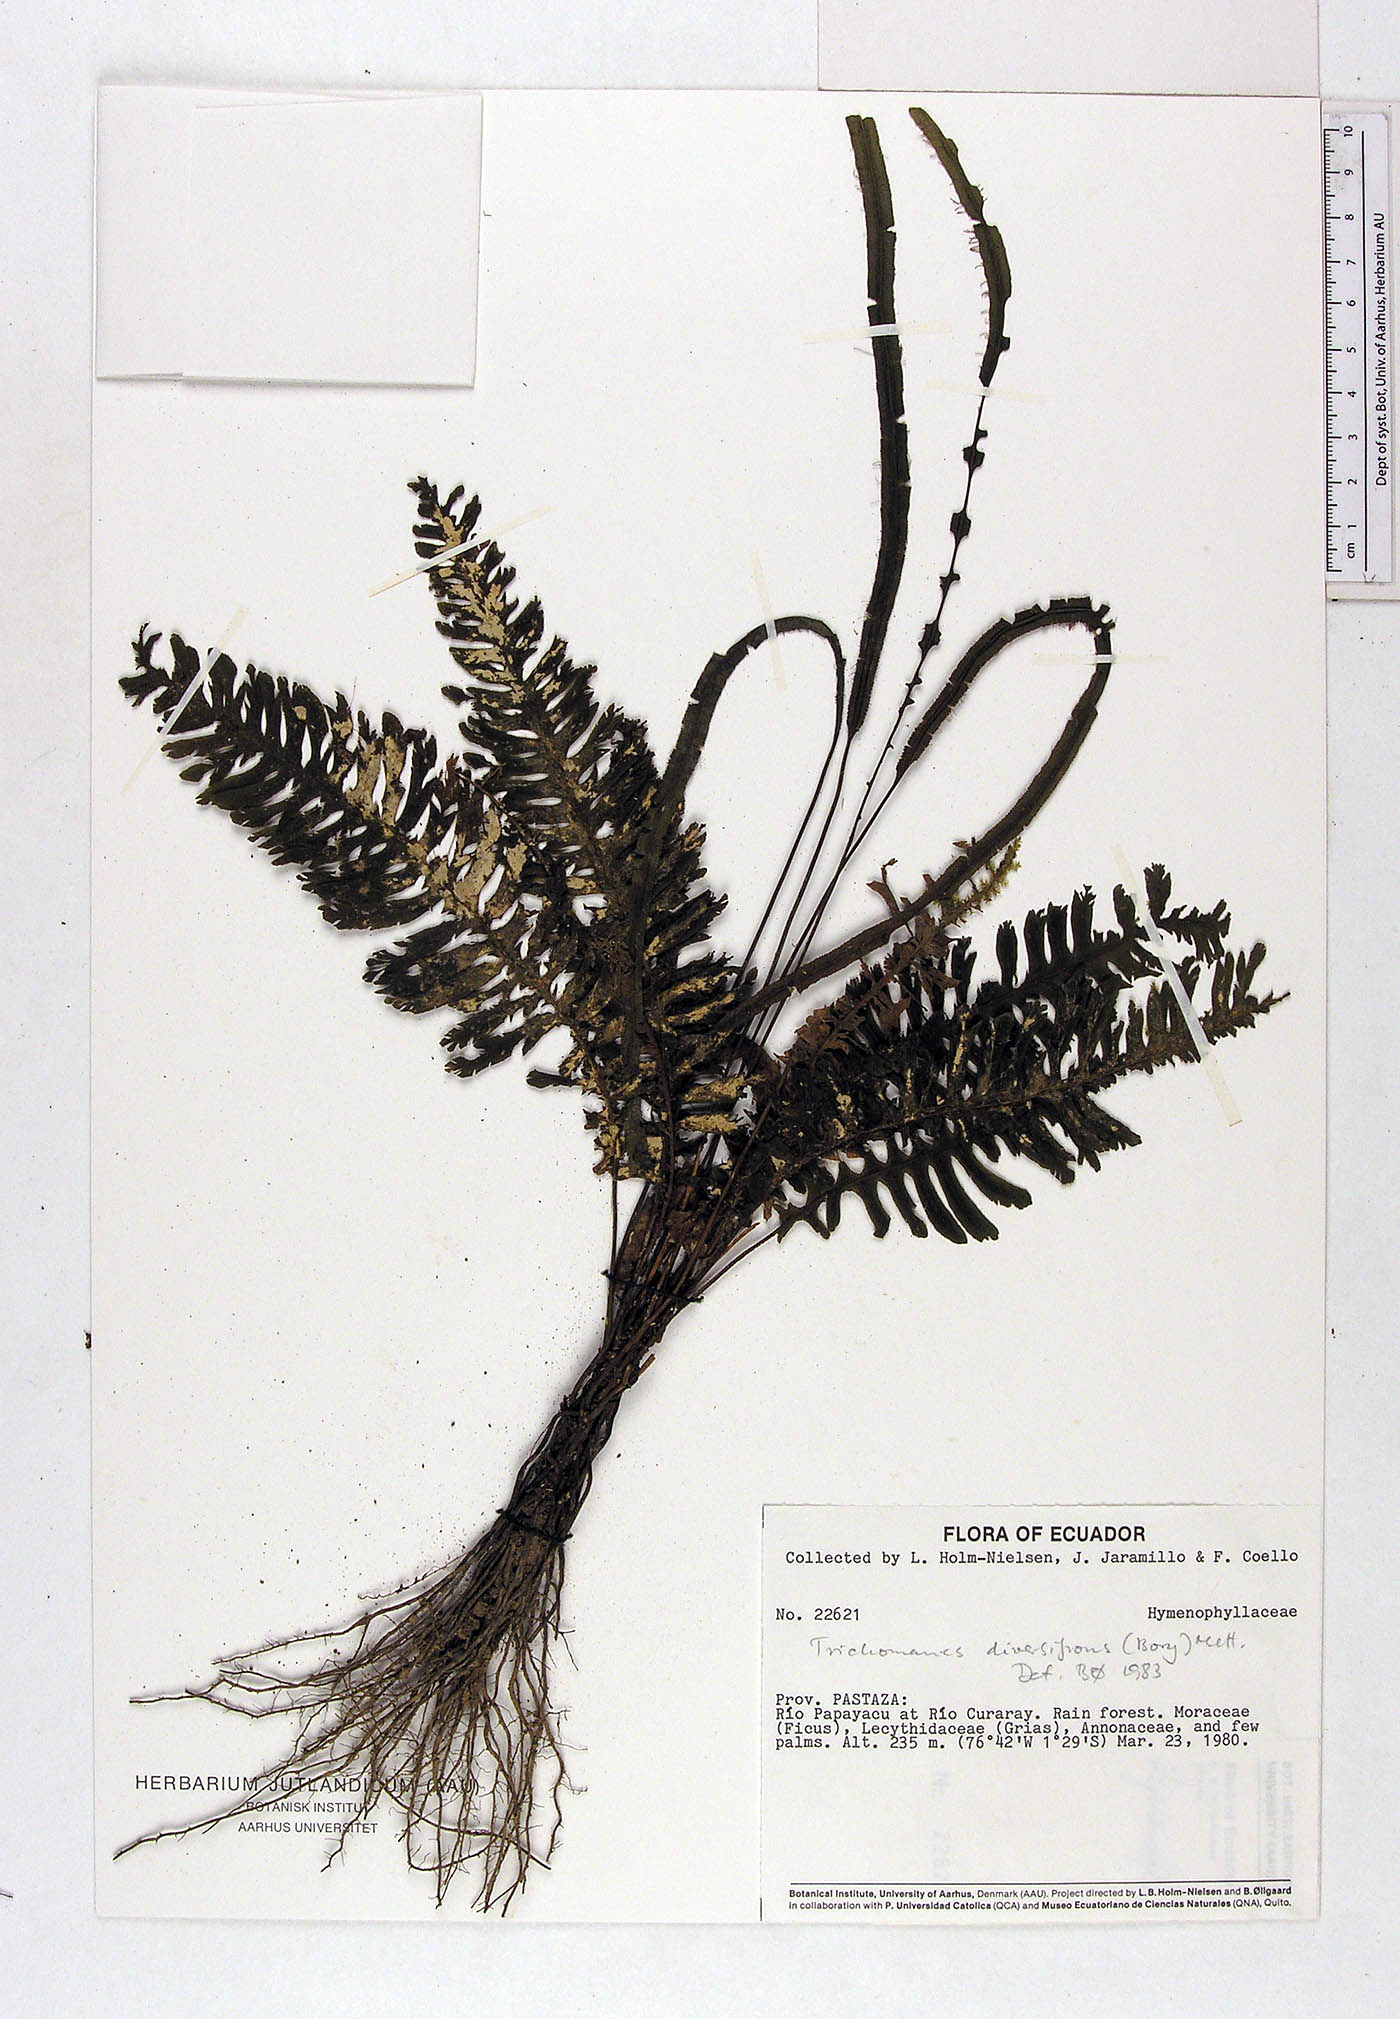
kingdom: Plantae
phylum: Tracheophyta
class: Polypodiopsida
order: Hymenophyllales
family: Hymenophyllaceae
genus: Trichomanes
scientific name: Trichomanes diversifrons
